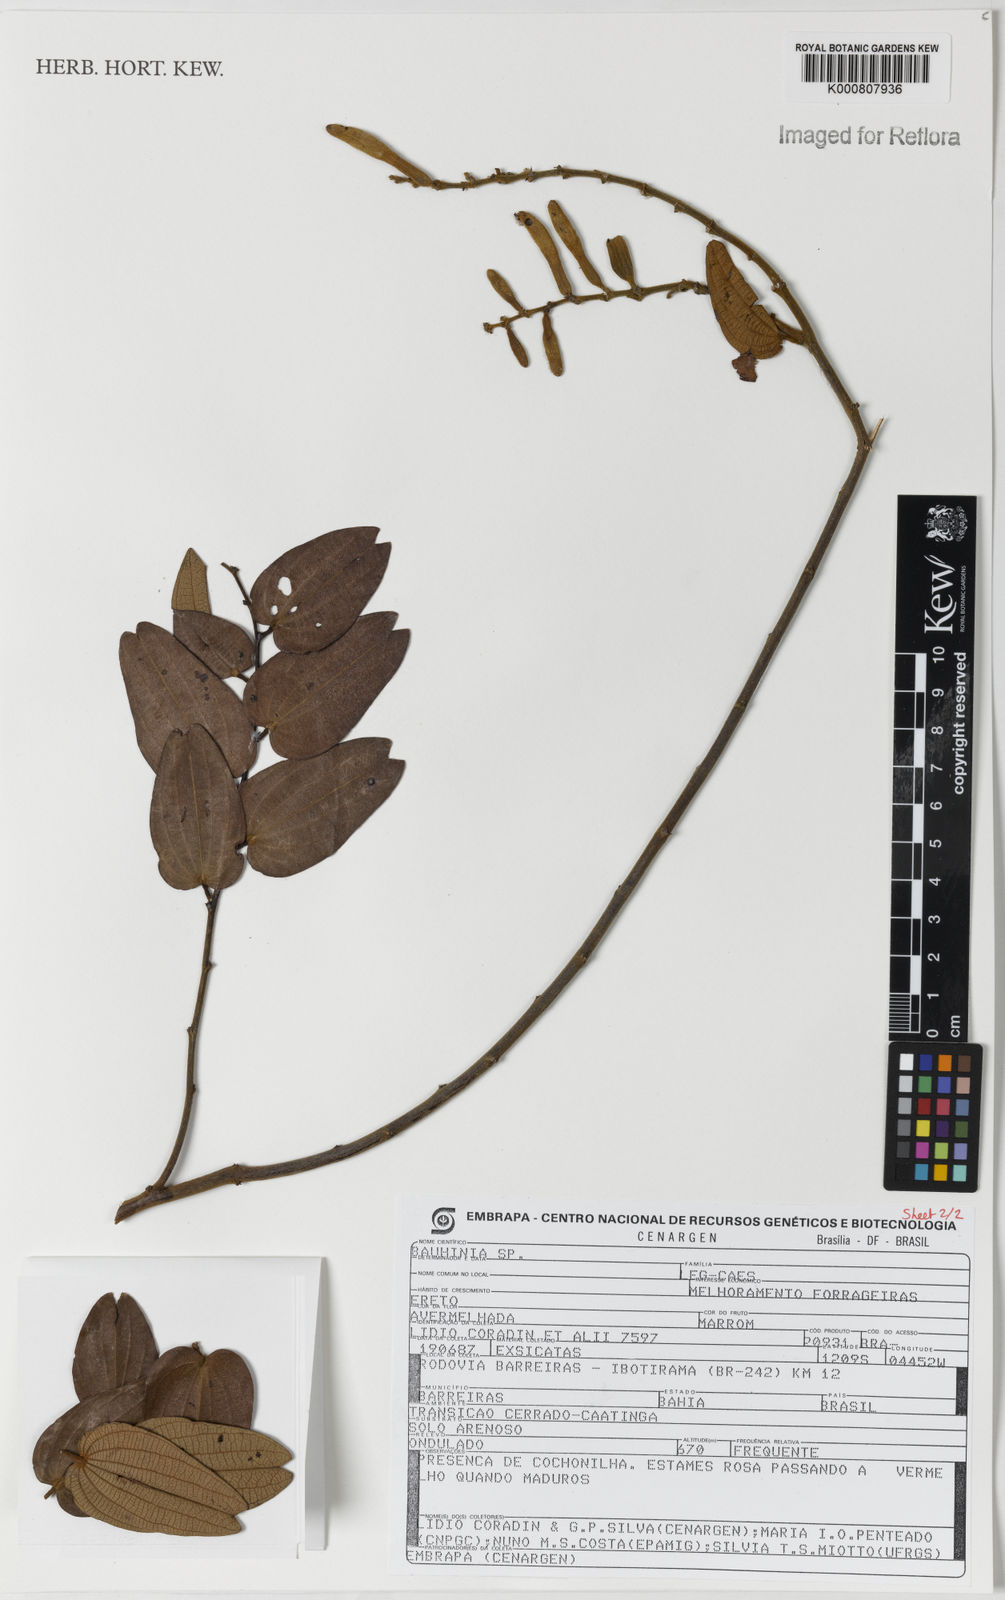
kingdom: Plantae
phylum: Tracheophyta
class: Magnoliopsida
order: Fabales
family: Fabaceae
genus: Bauhinia
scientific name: Bauhinia
